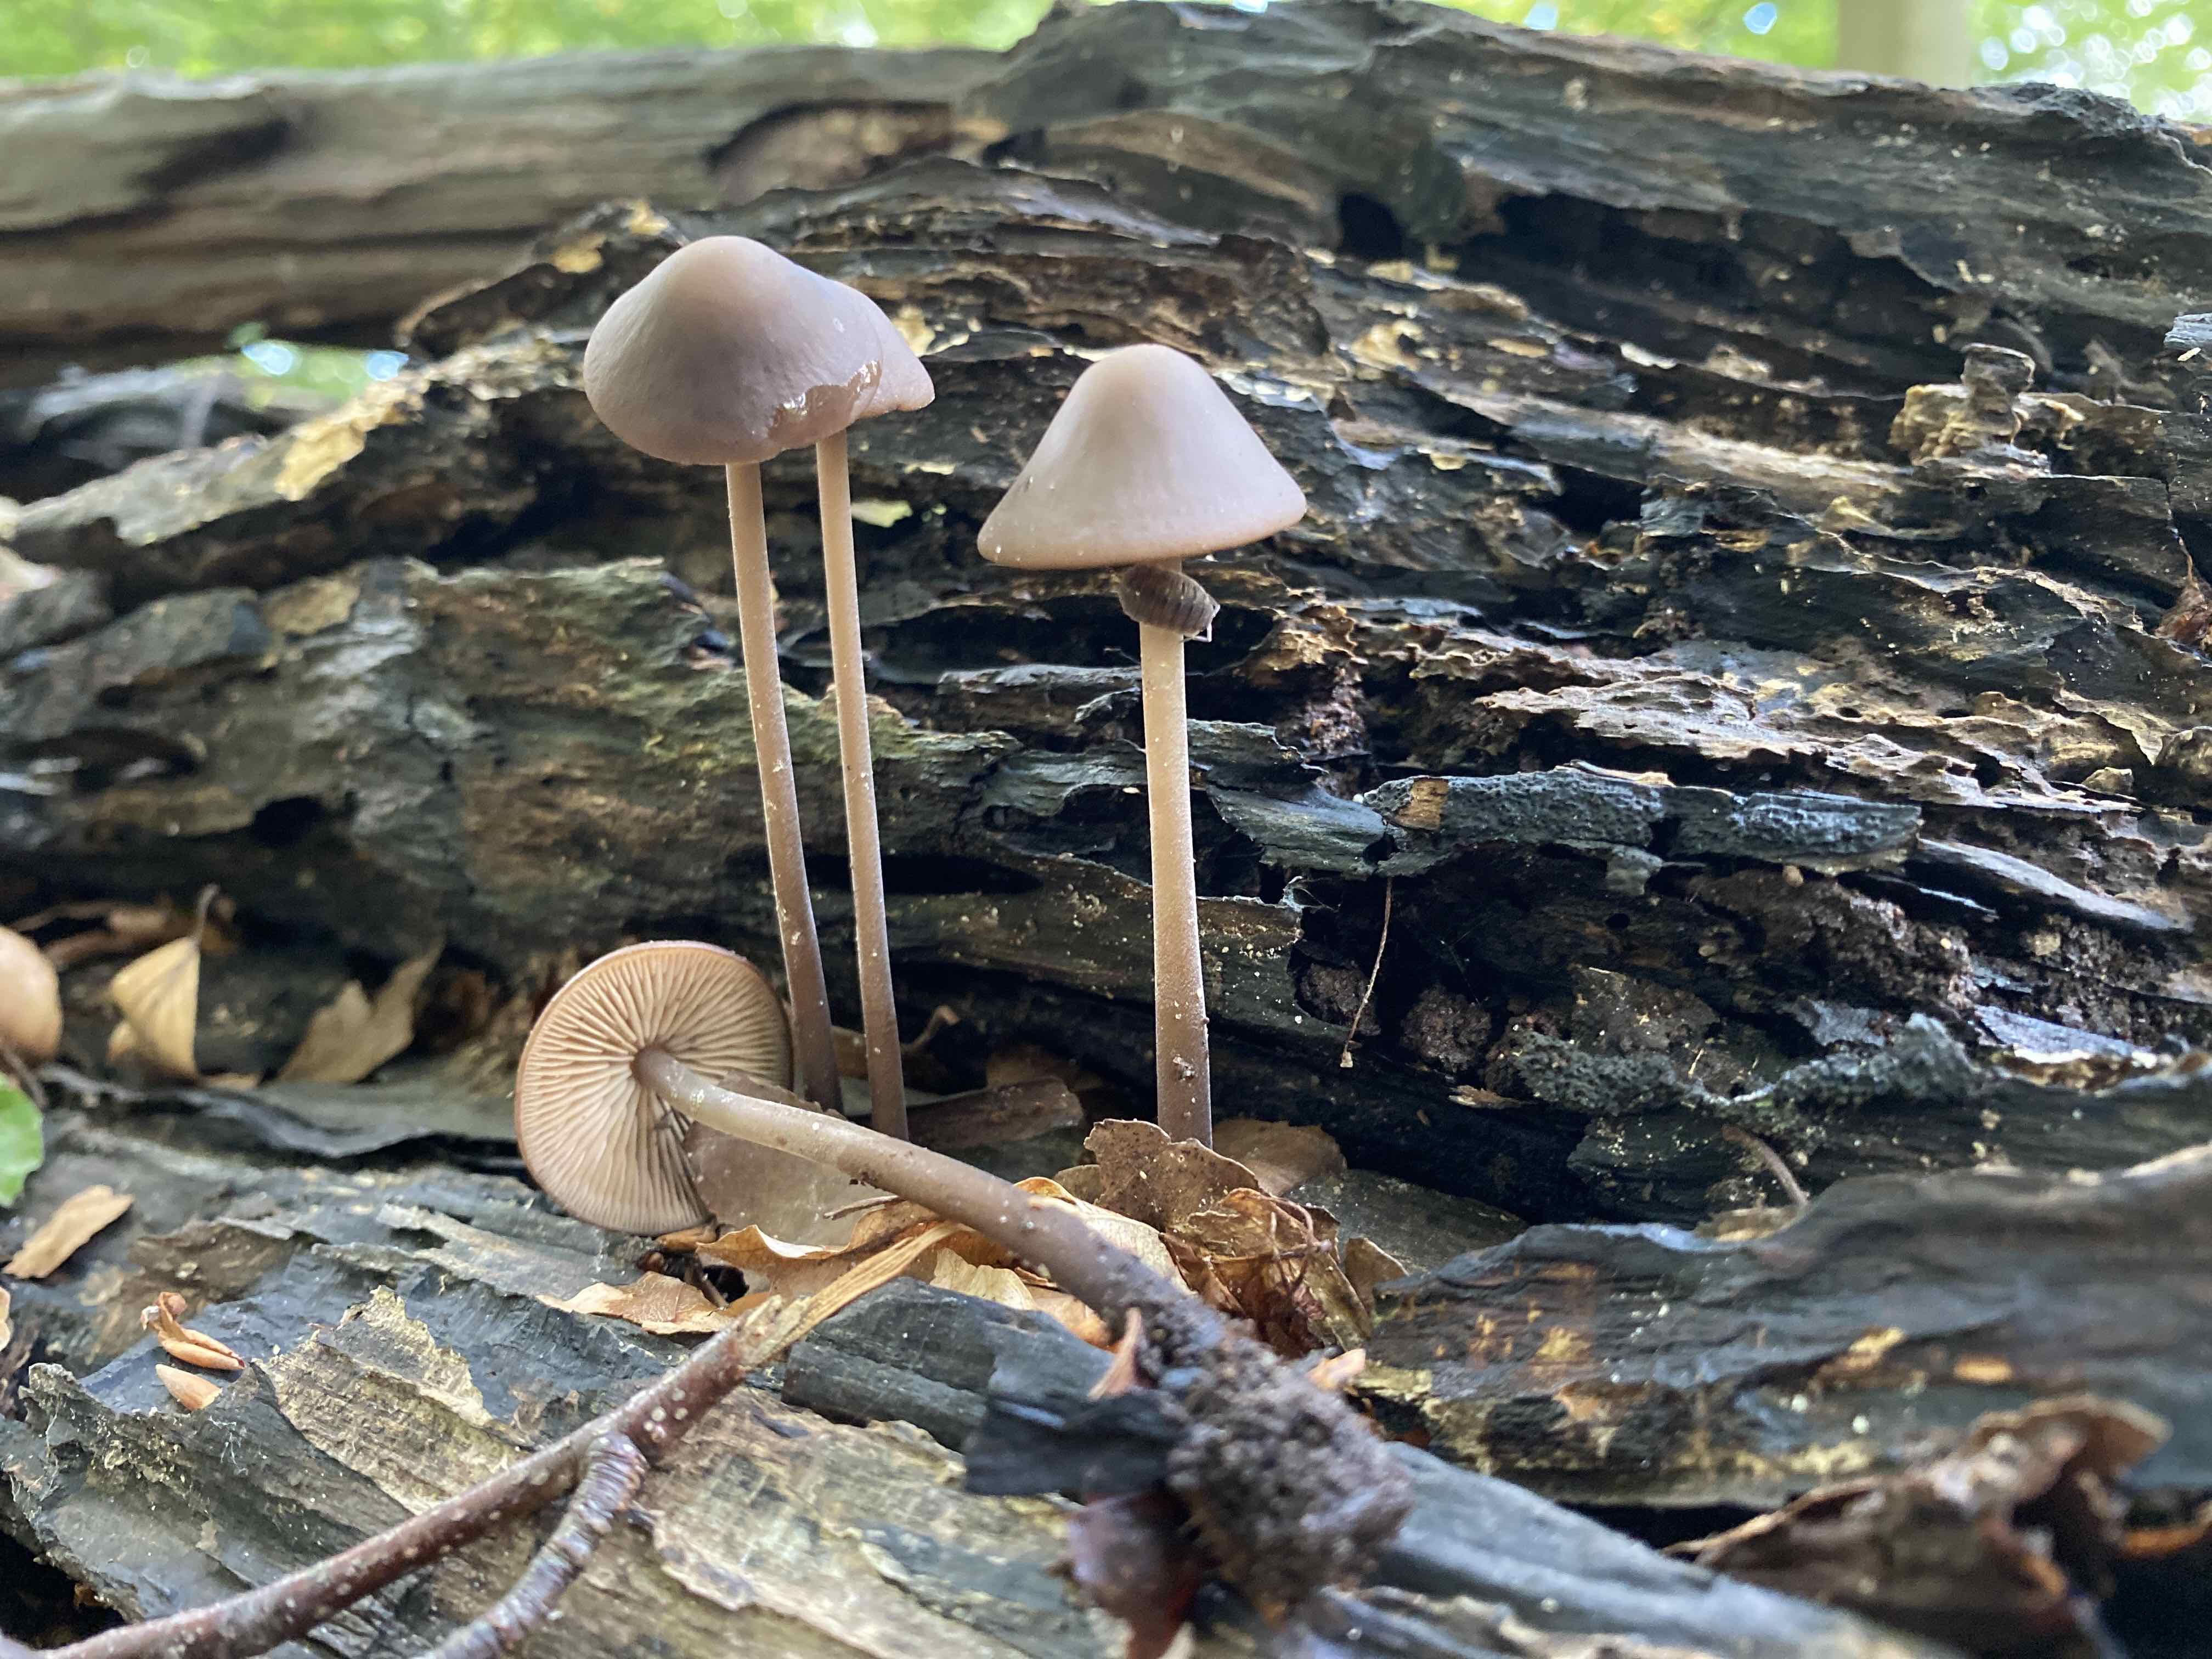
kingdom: Fungi
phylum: Basidiomycota
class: Agaricomycetes
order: Agaricales
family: Omphalotaceae
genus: Mycetinis
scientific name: Mycetinis alliaceus
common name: stor løghat
